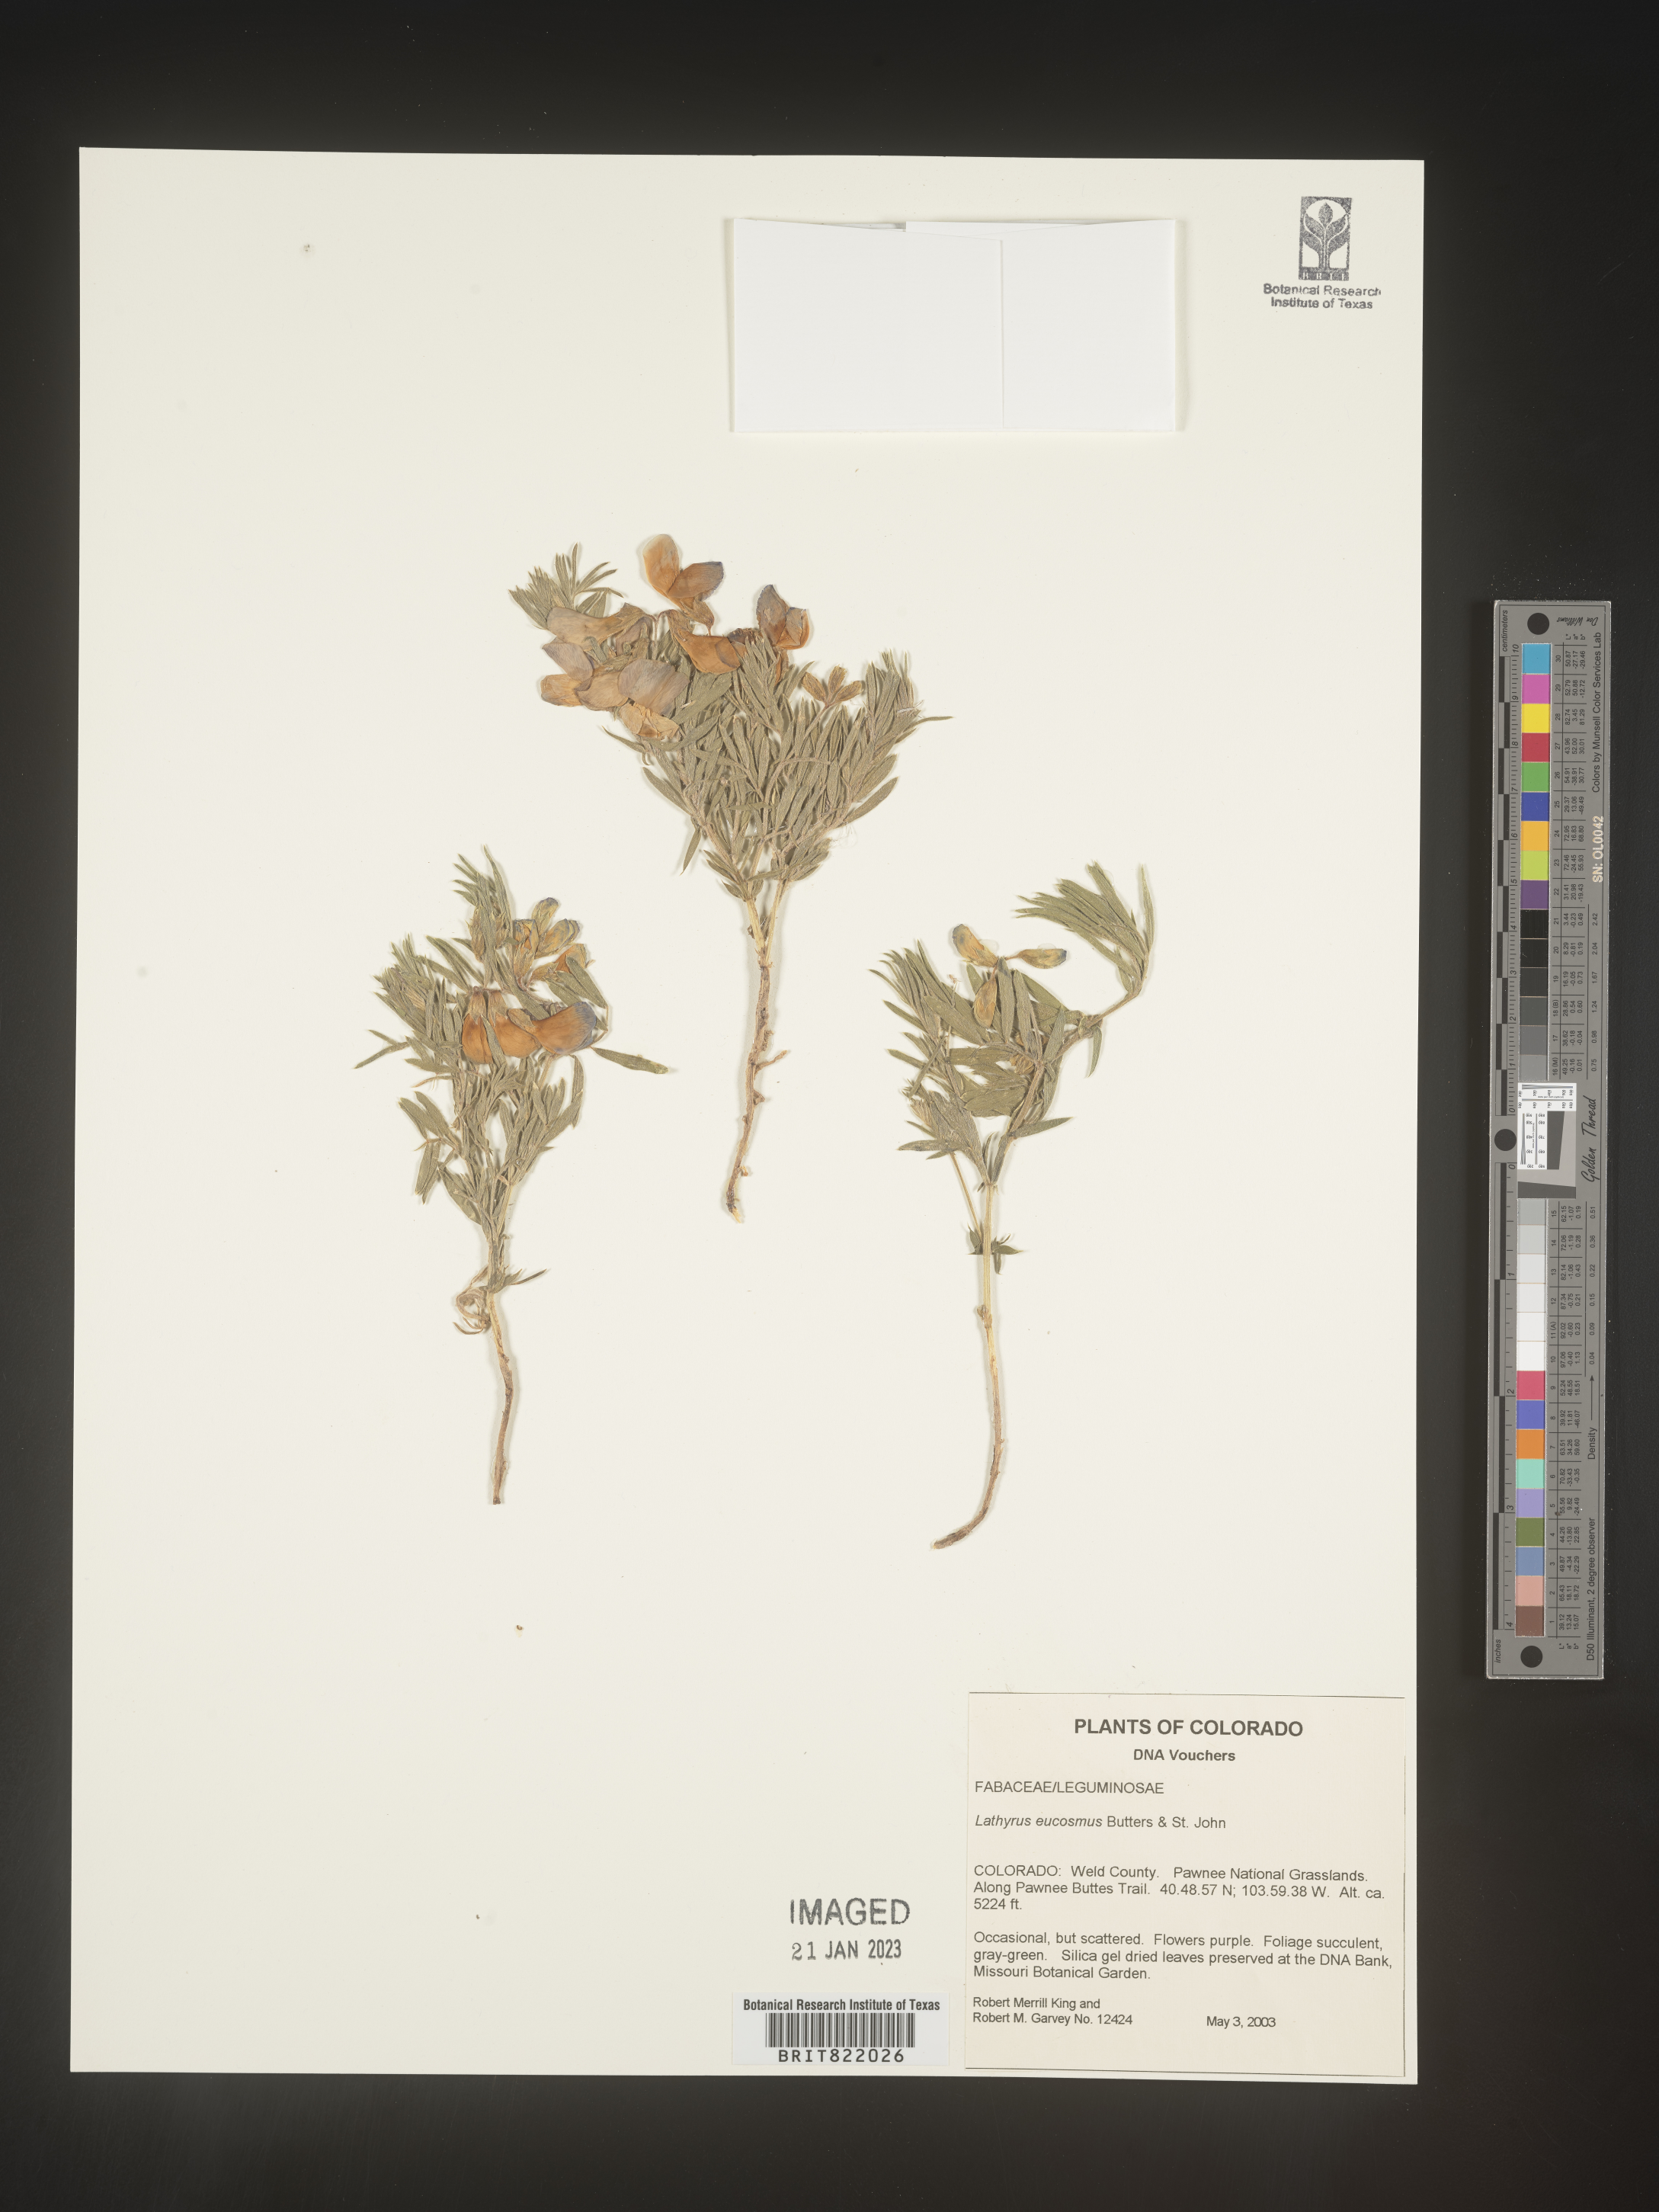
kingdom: Plantae
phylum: Tracheophyta
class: Magnoliopsida
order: Fabales
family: Fabaceae
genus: Lathyrus
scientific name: Lathyrus
